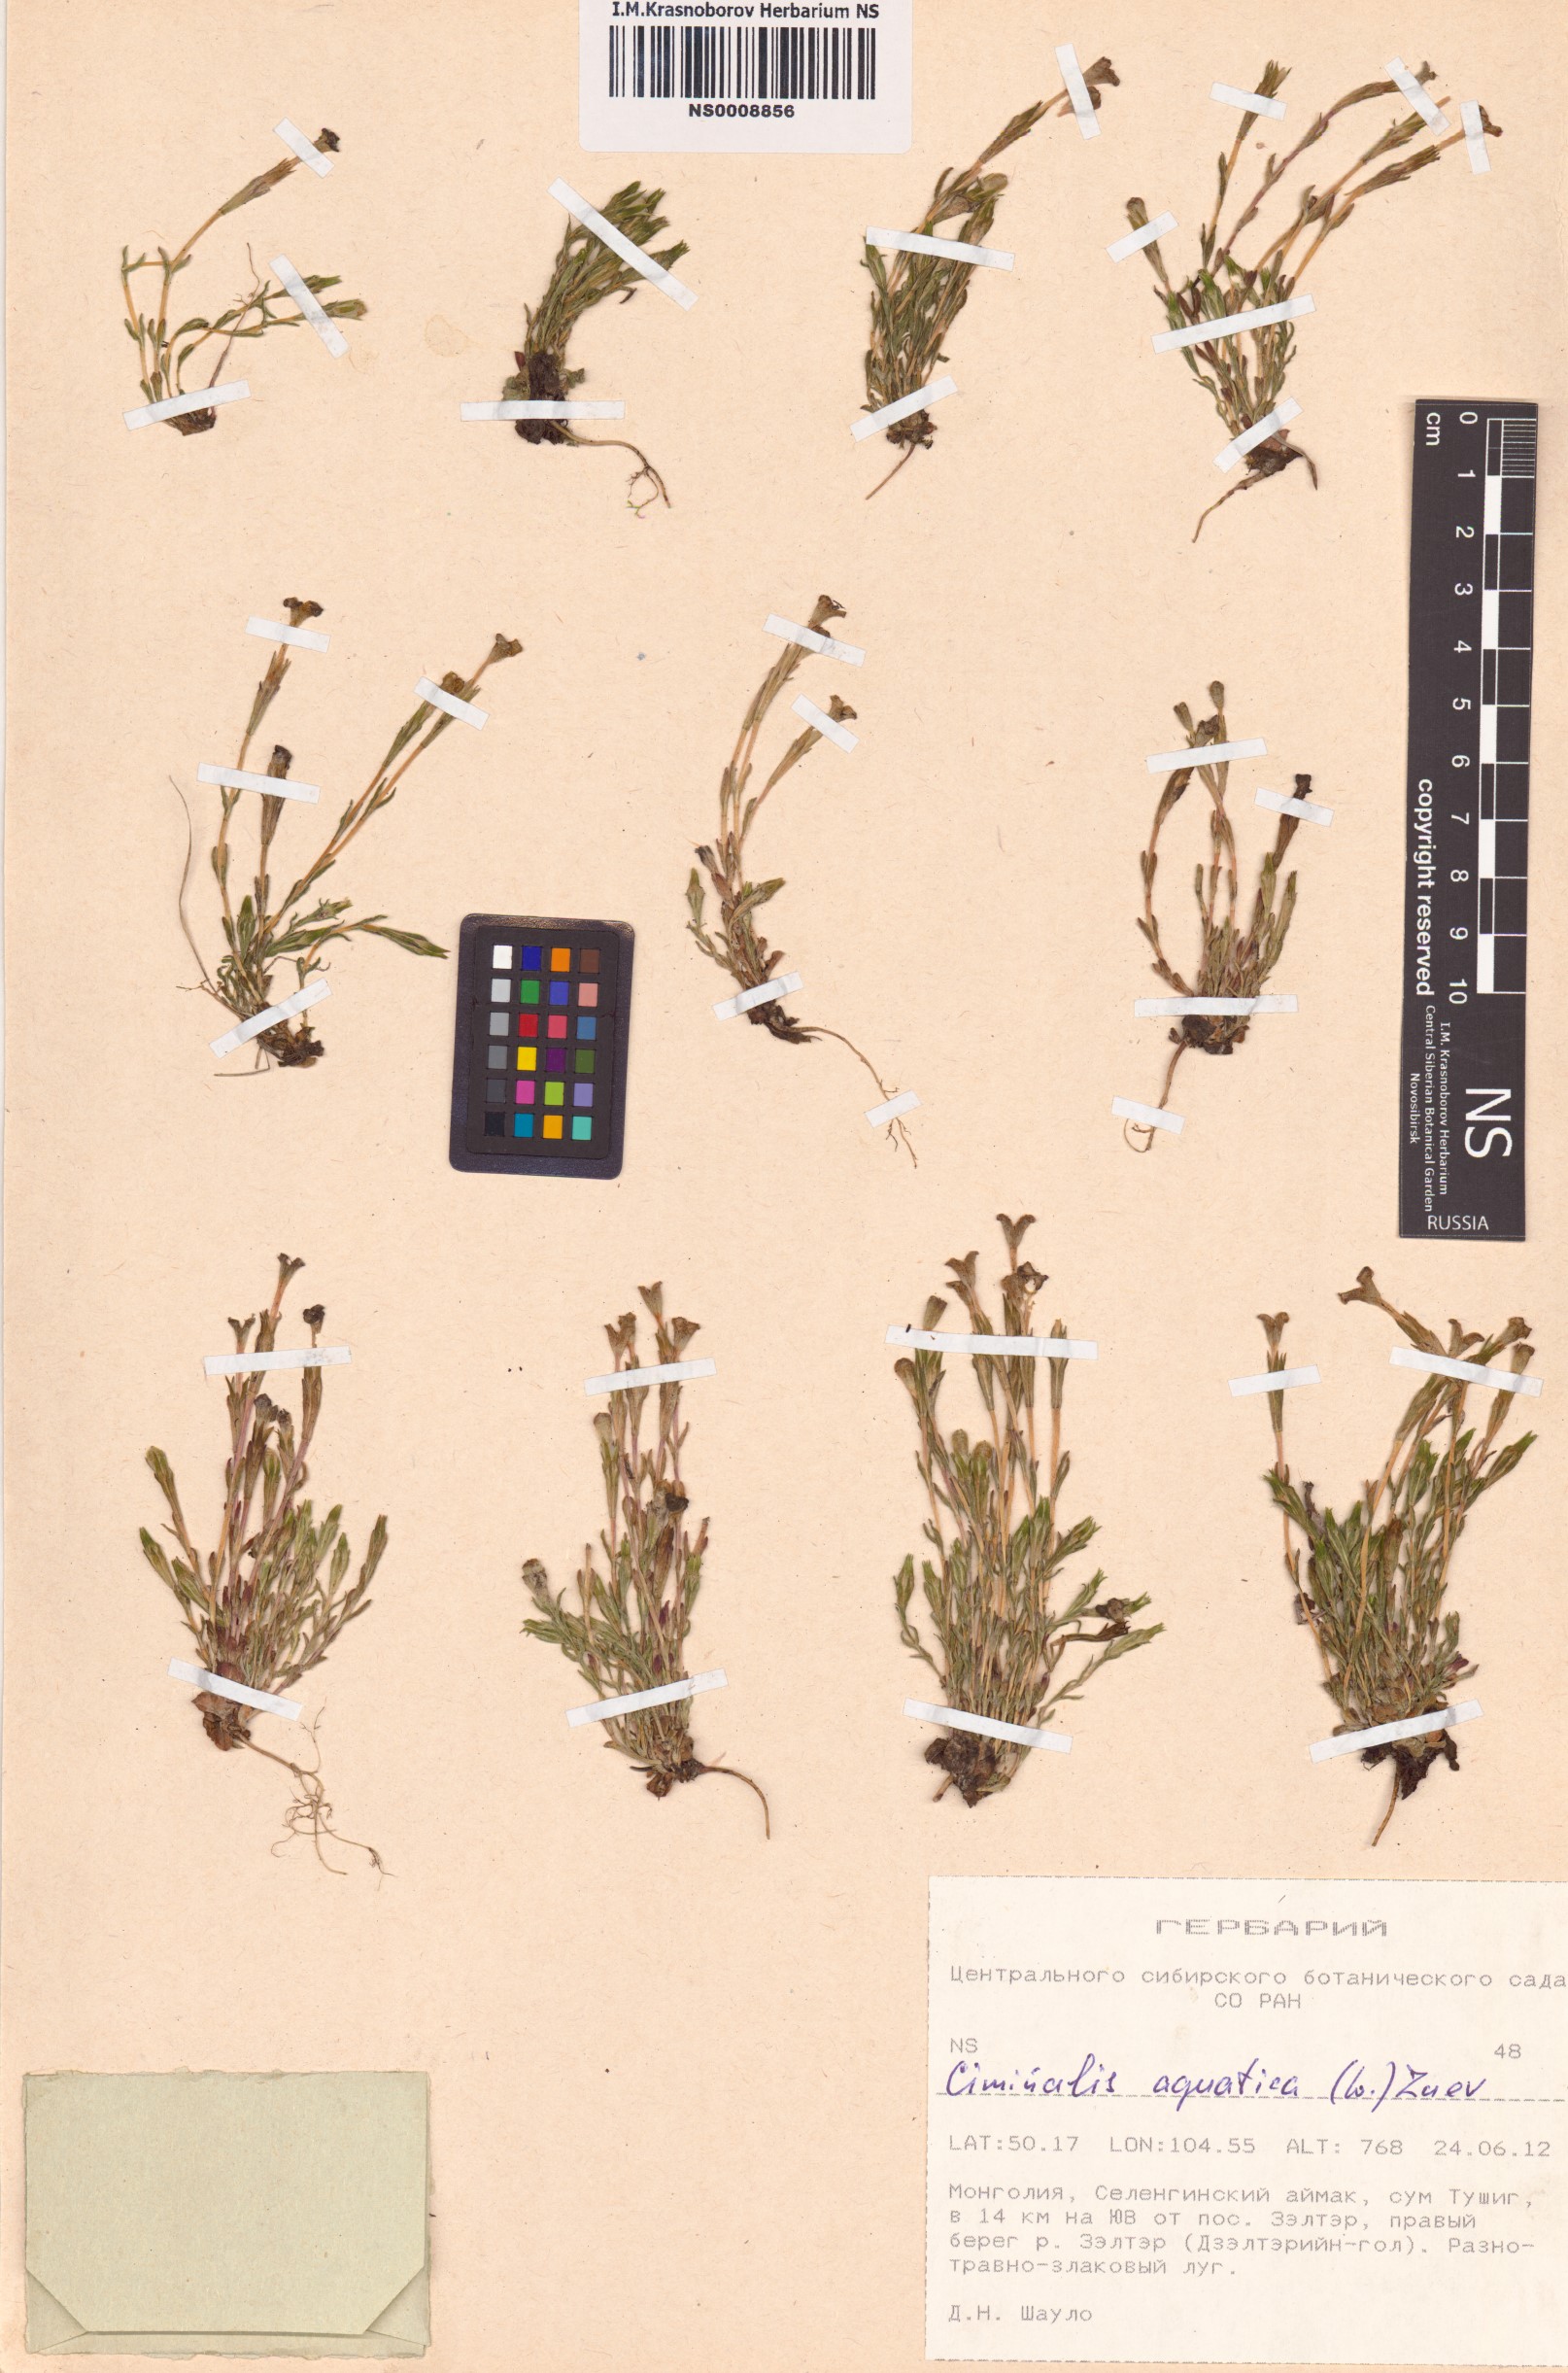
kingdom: Plantae
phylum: Tracheophyta
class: Magnoliopsida
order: Gentianales
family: Gentianaceae
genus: Gentiana
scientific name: Gentiana aquatica
